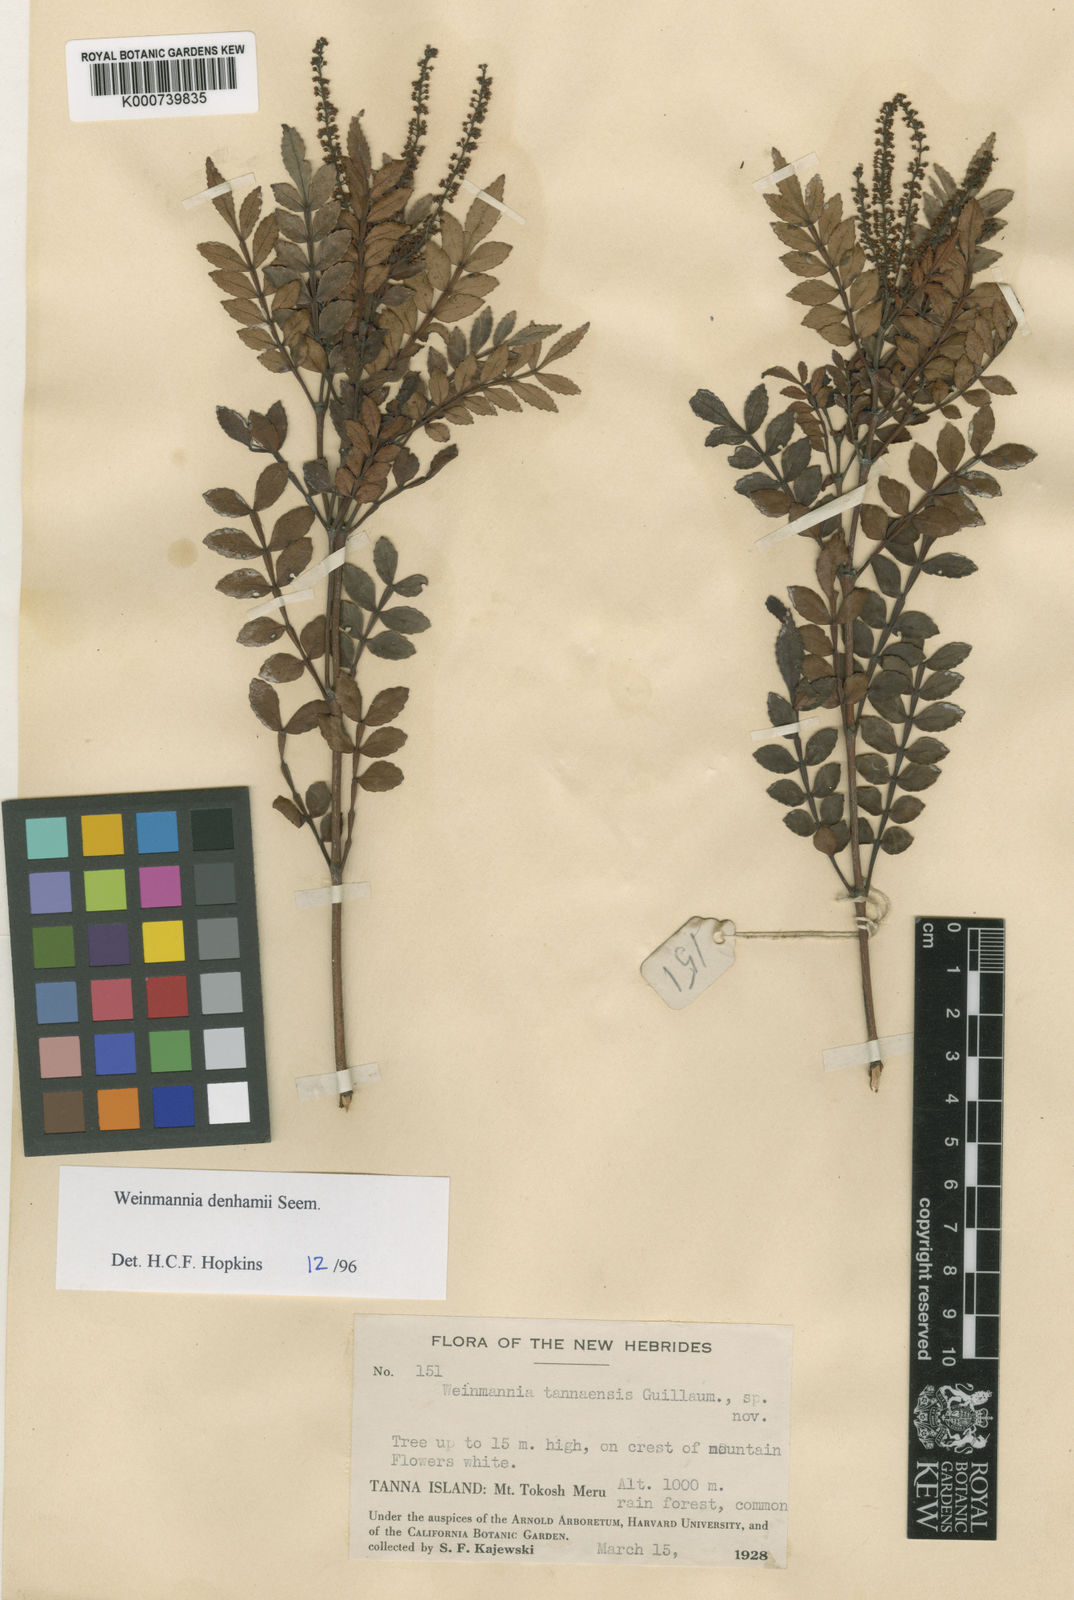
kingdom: Plantae
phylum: Tracheophyta
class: Magnoliopsida
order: Oxalidales
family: Cunoniaceae
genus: Pterophylla
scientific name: Pterophylla denhamii
